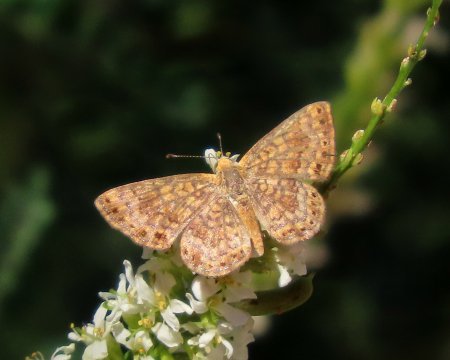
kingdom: Animalia
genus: Calephelis
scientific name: Calephelis nemesis
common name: Fatal Metalmark
